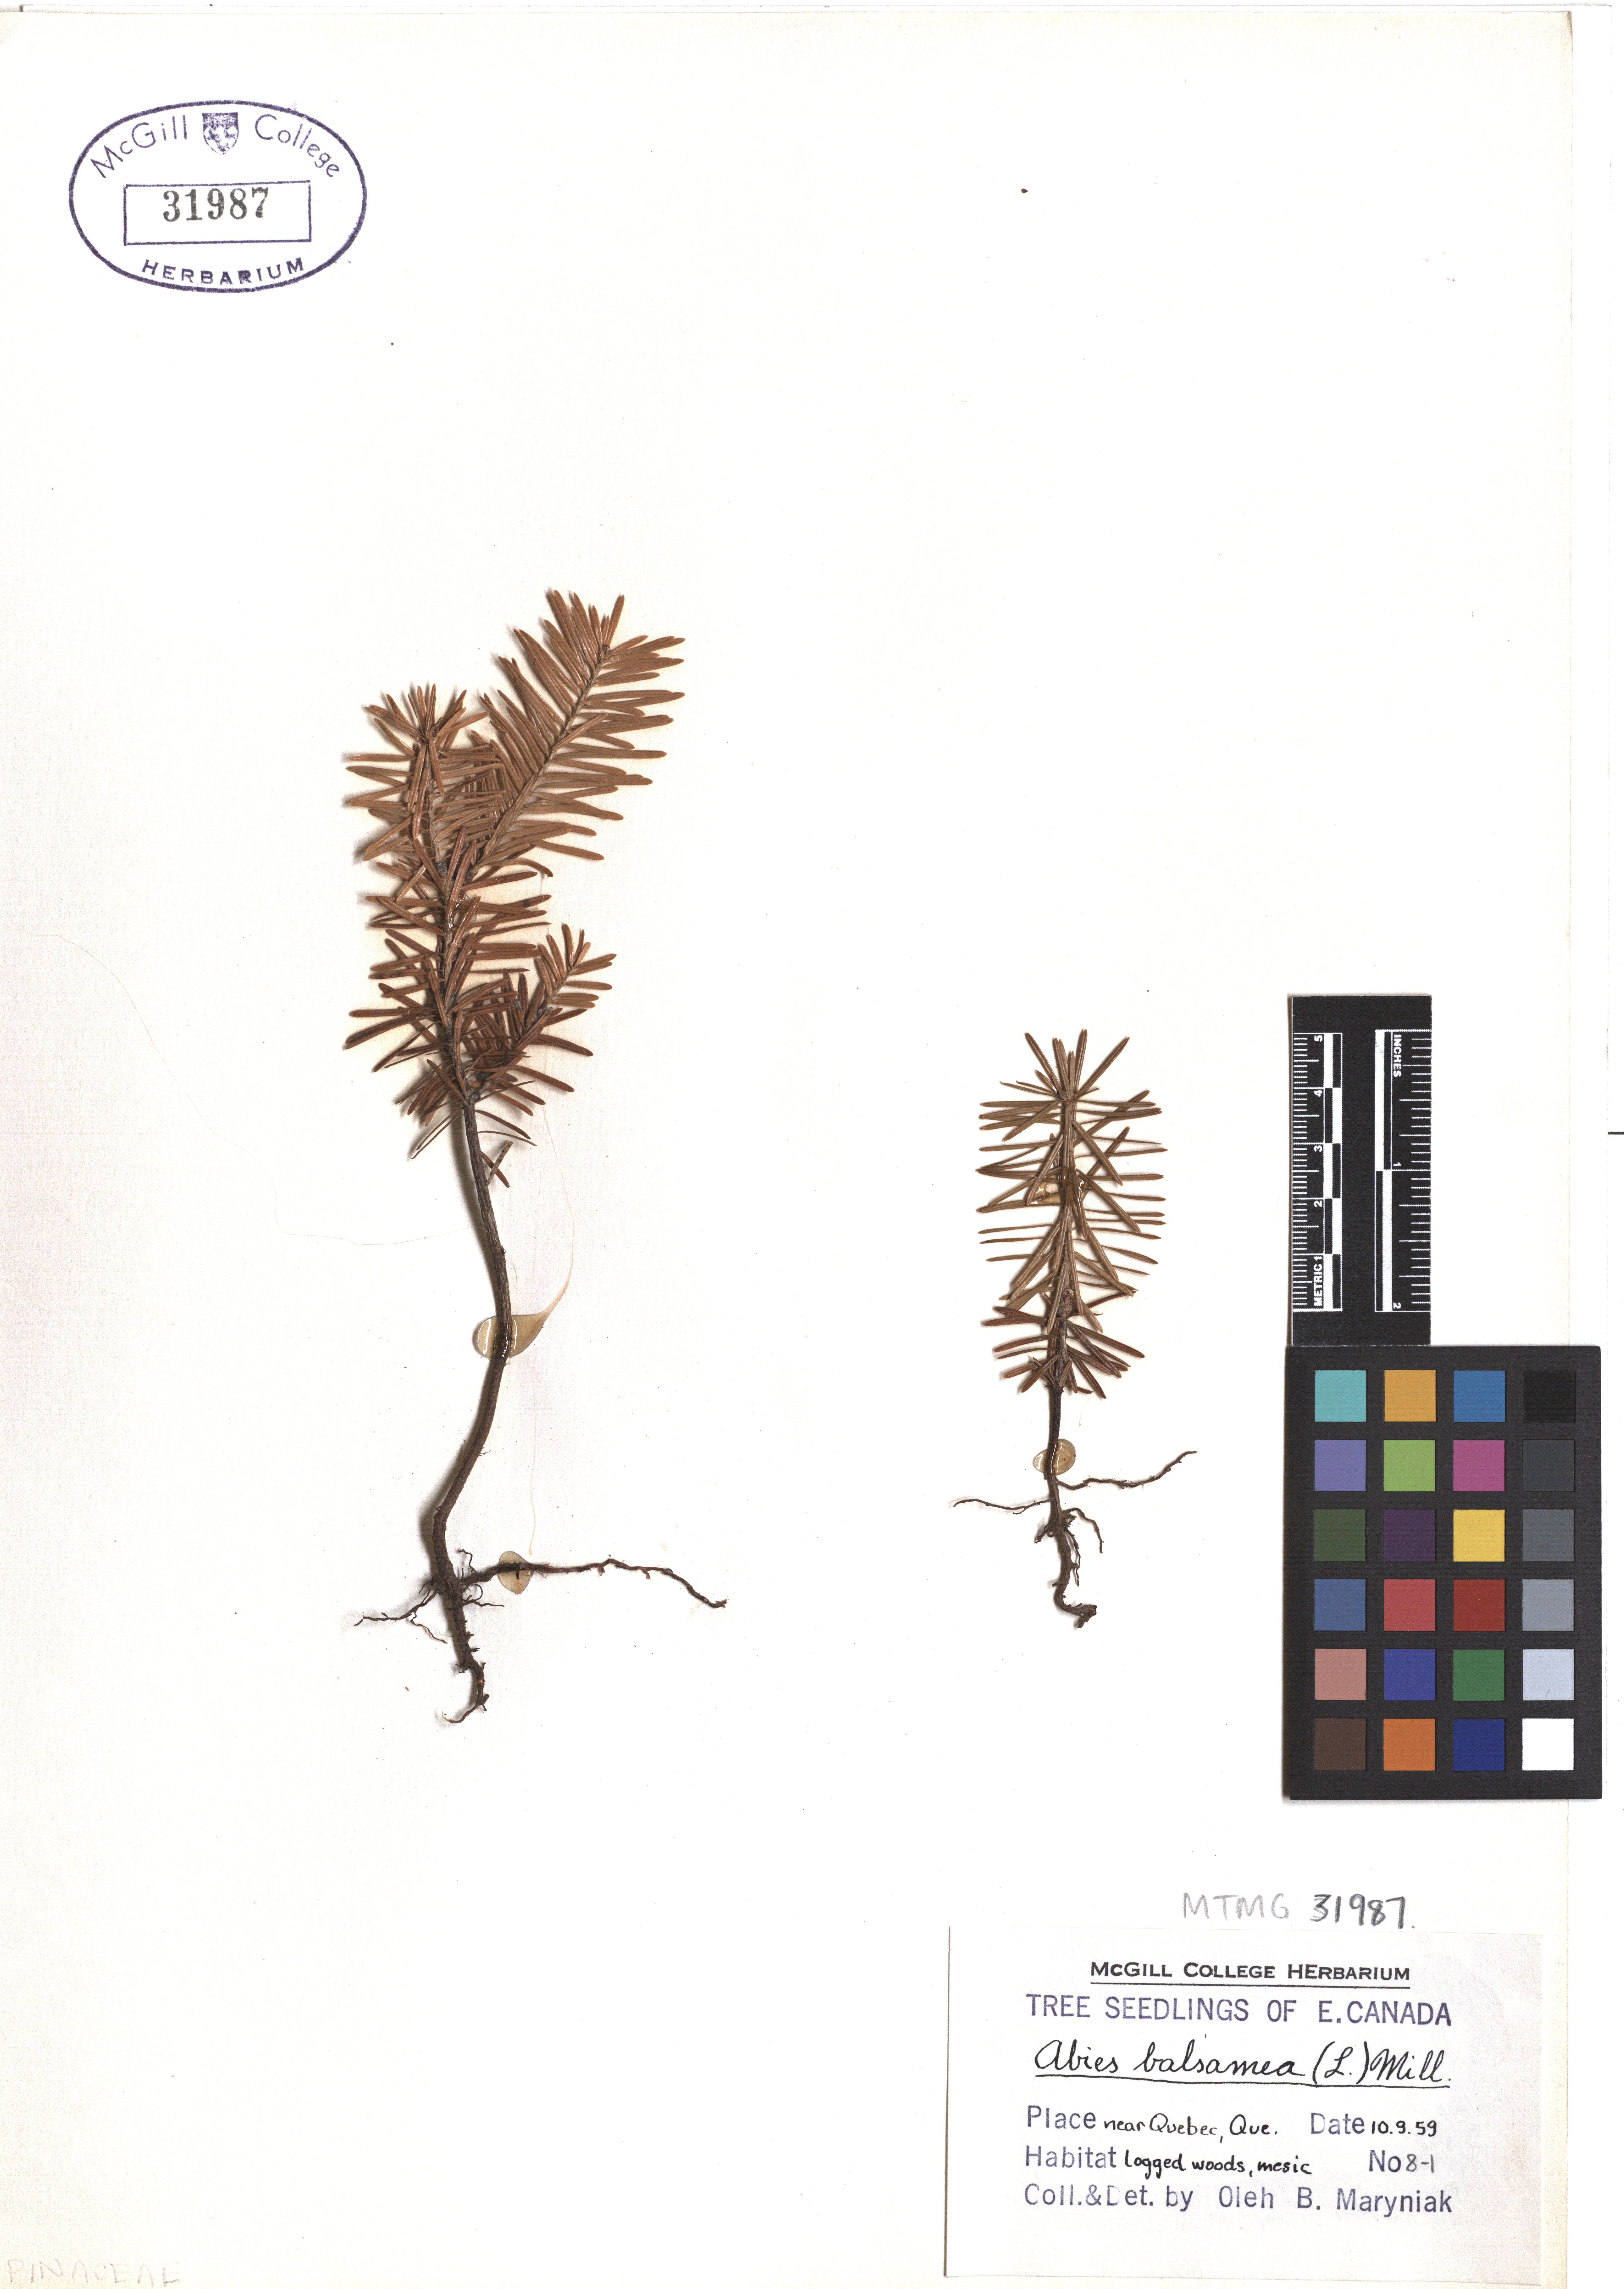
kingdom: Plantae
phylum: Tracheophyta
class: Pinopsida
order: Pinales
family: Pinaceae
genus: Abies
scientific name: Abies balsamea
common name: Balsam fir
